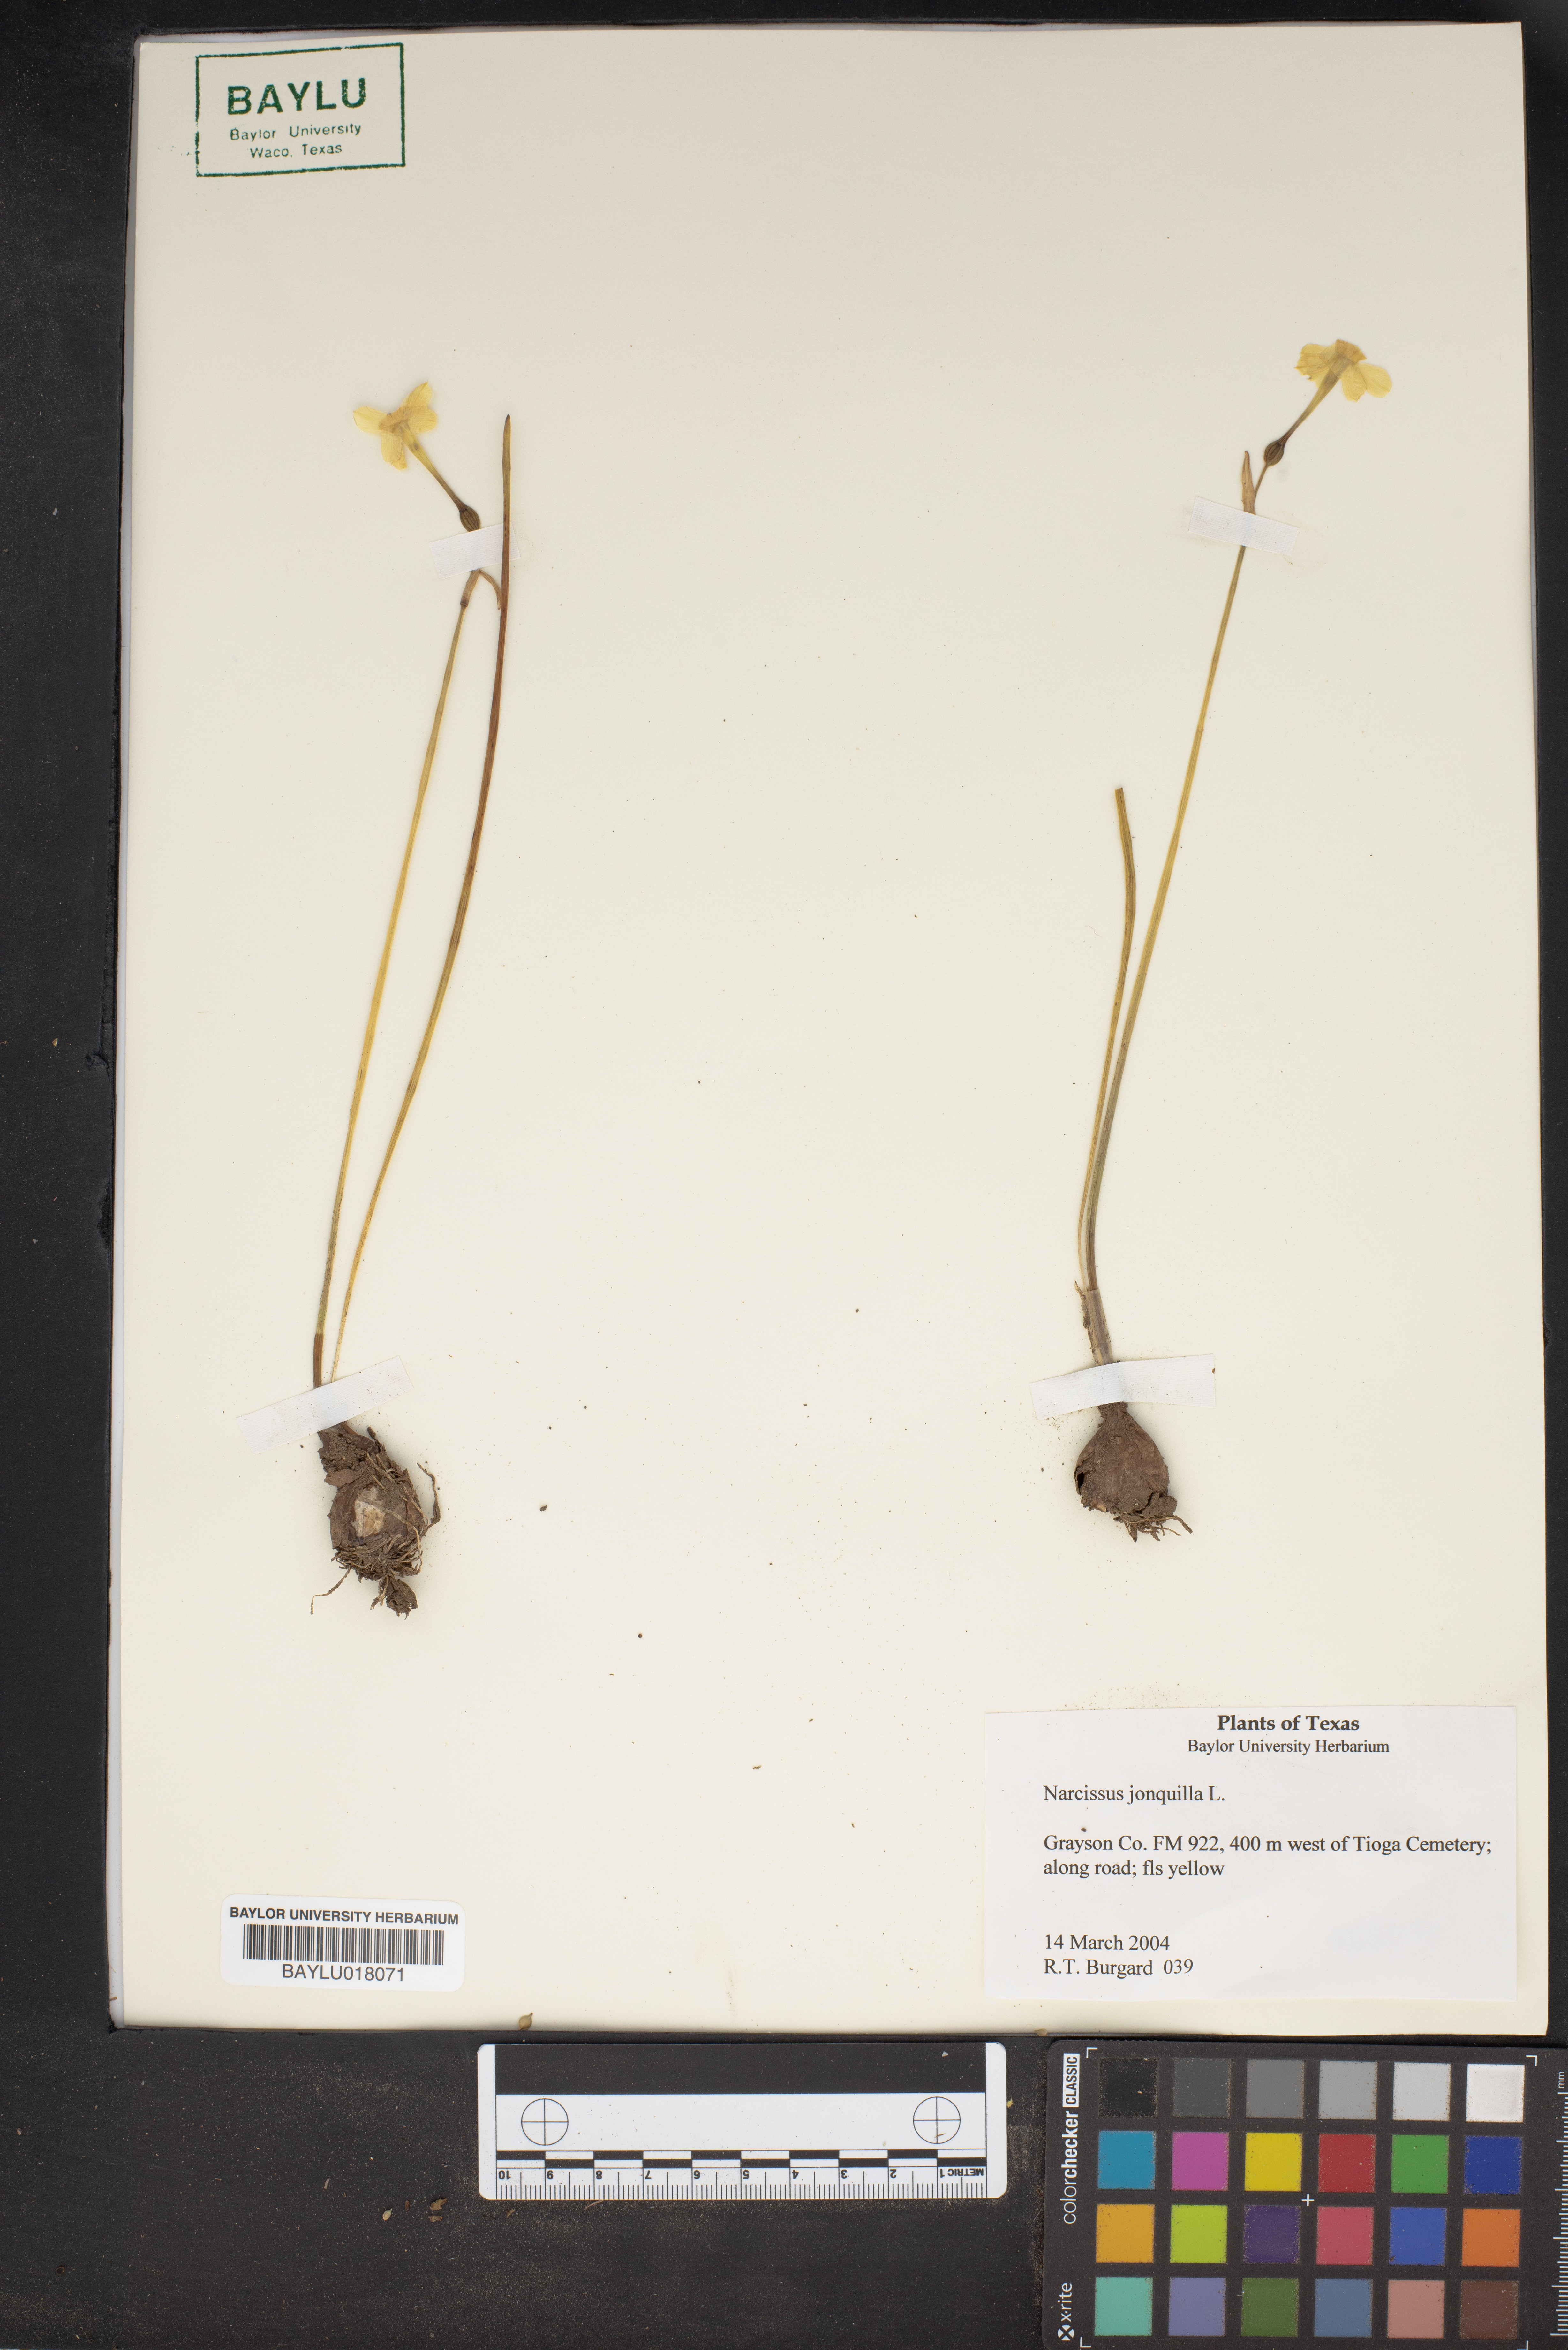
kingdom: Plantae
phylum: Tracheophyta
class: Liliopsida
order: Asparagales
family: Amaryllidaceae
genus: Narcissus
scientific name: Narcissus jonquilla
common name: Jonquil
